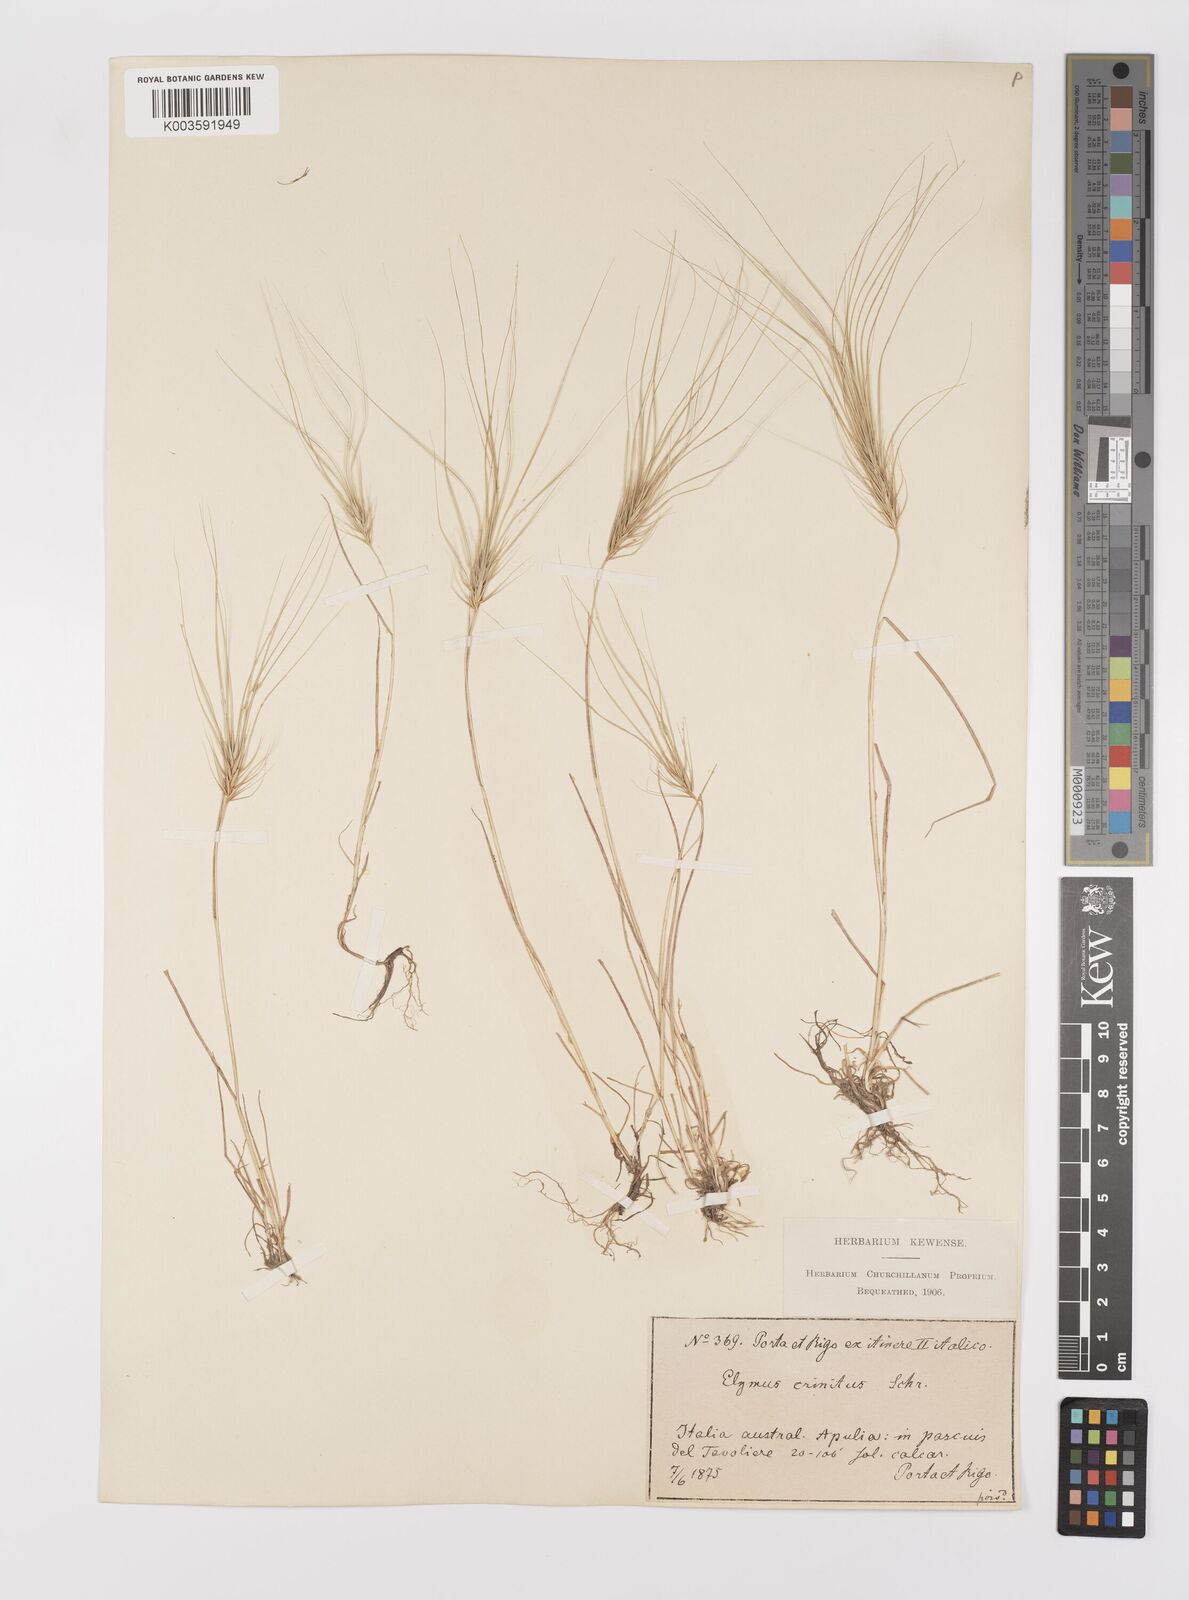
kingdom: Plantae
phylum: Tracheophyta
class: Liliopsida
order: Poales
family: Poaceae
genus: Taeniatherum
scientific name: Taeniatherum caput-medusae
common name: Medusahead
